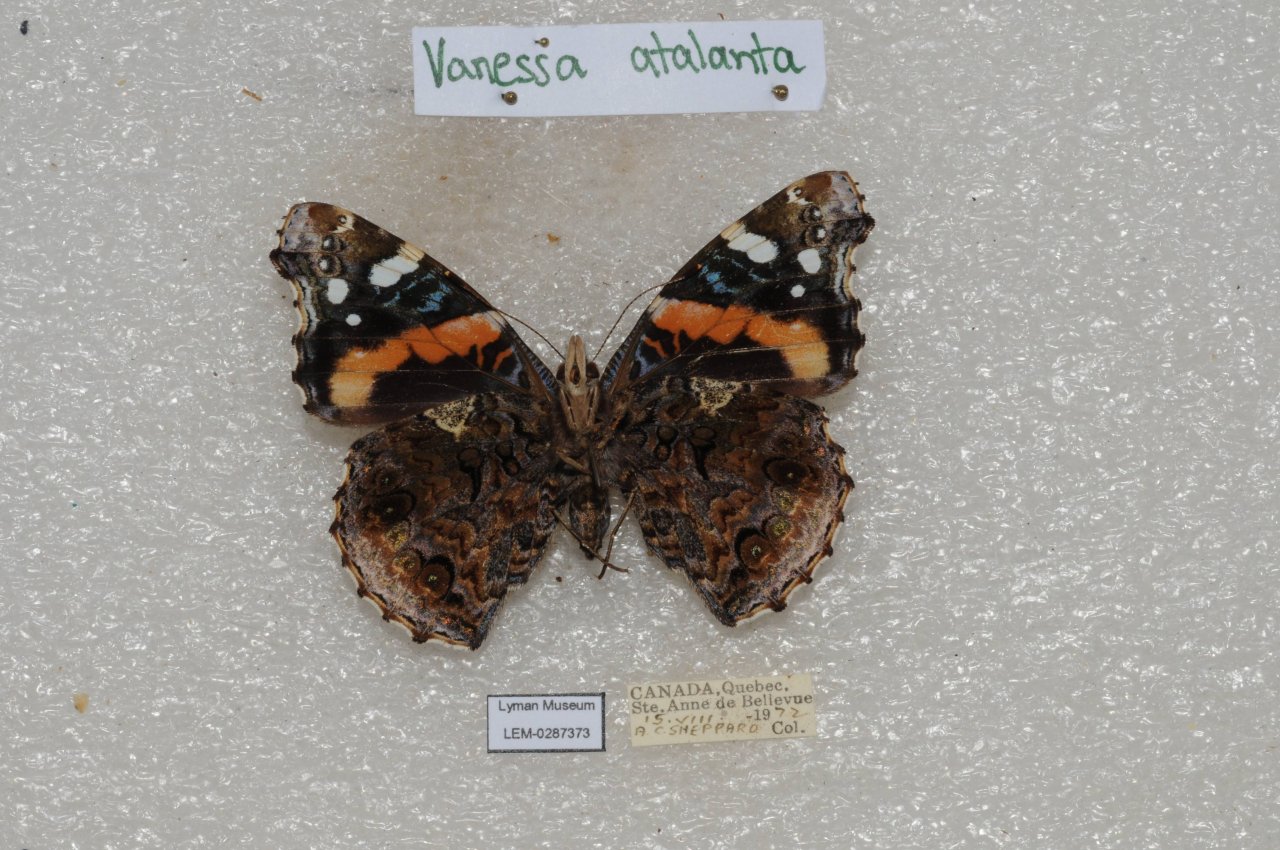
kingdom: Animalia
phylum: Arthropoda
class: Insecta
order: Lepidoptera
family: Nymphalidae
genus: Vanessa
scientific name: Vanessa atalanta
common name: Red Admiral
